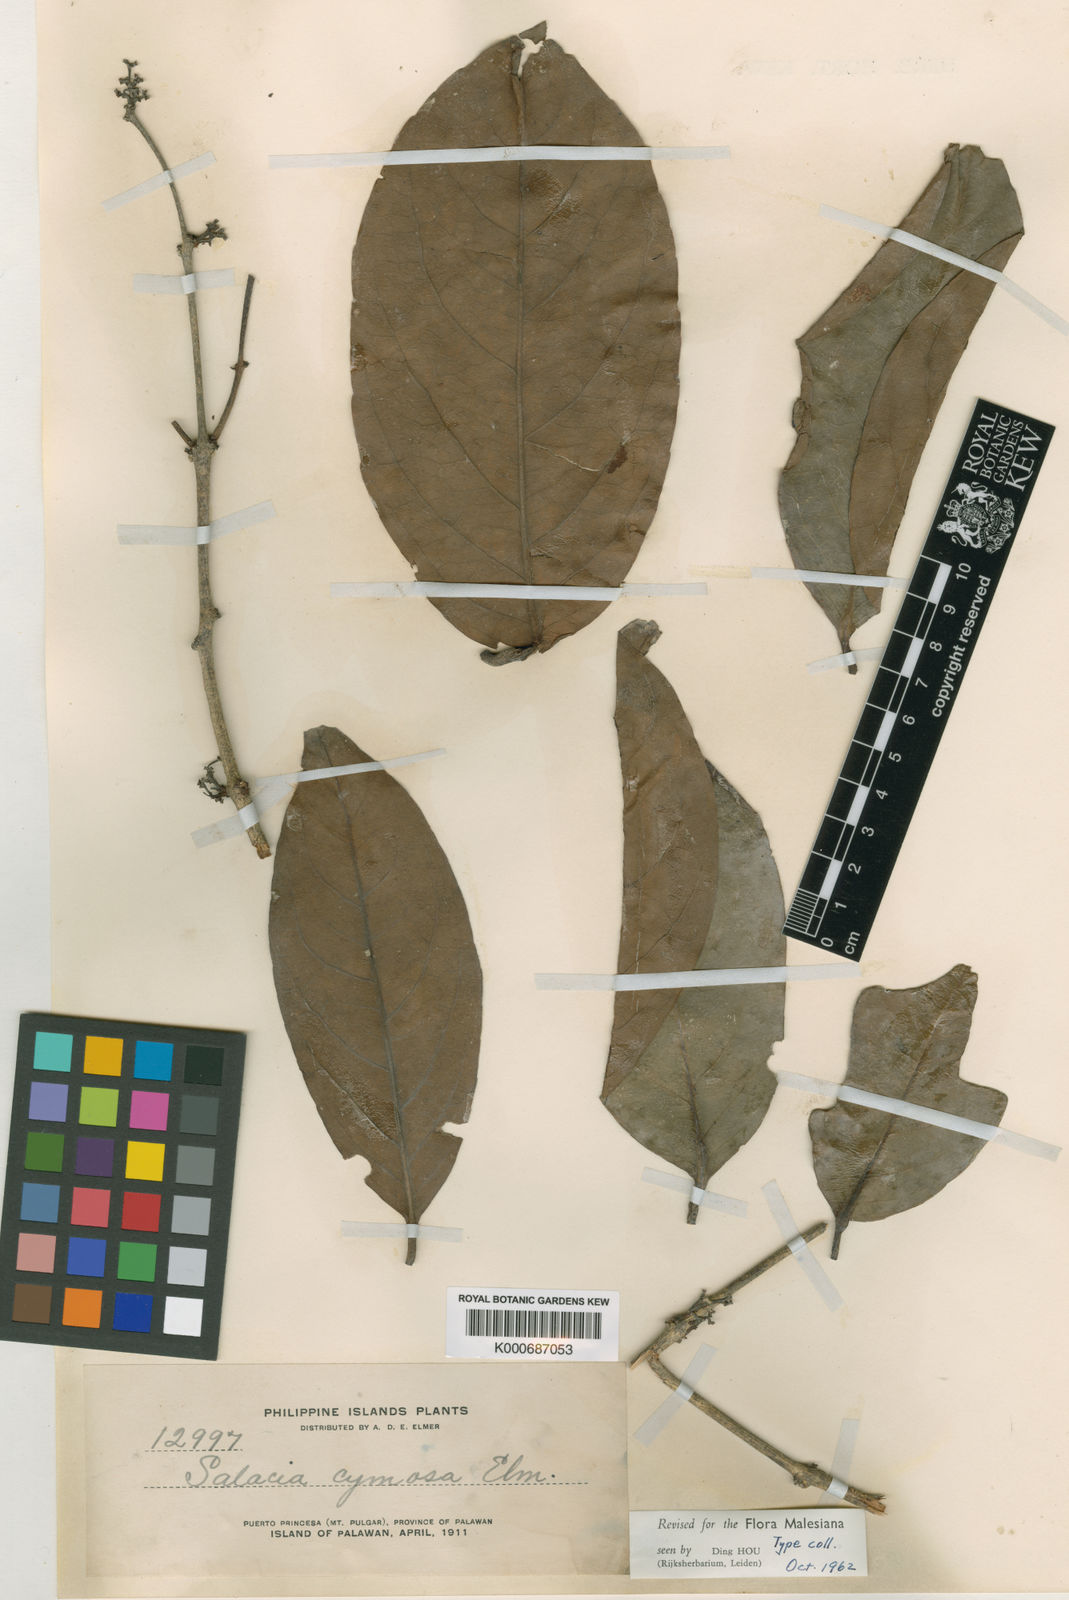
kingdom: Plantae
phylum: Tracheophyta
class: Magnoliopsida
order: Celastrales
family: Celastraceae
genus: Salacia
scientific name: Salacia cymosa
